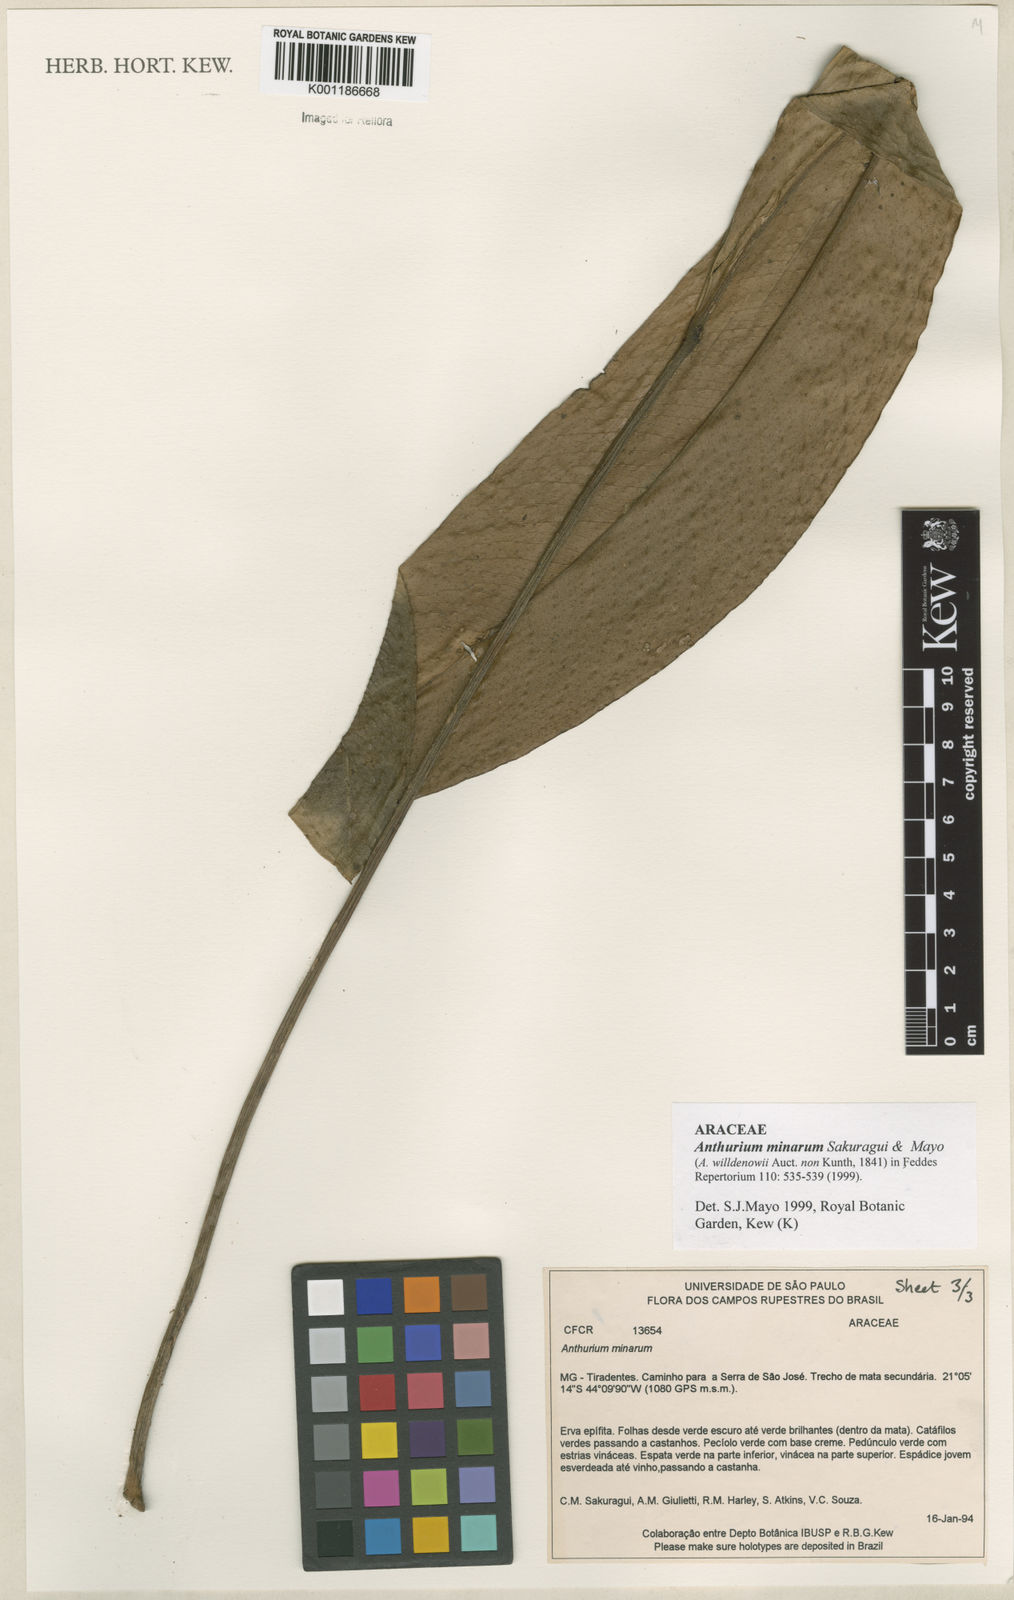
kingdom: Plantae
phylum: Tracheophyta
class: Liliopsida
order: Alismatales
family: Araceae
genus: Anthurium
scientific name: Anthurium minarum
